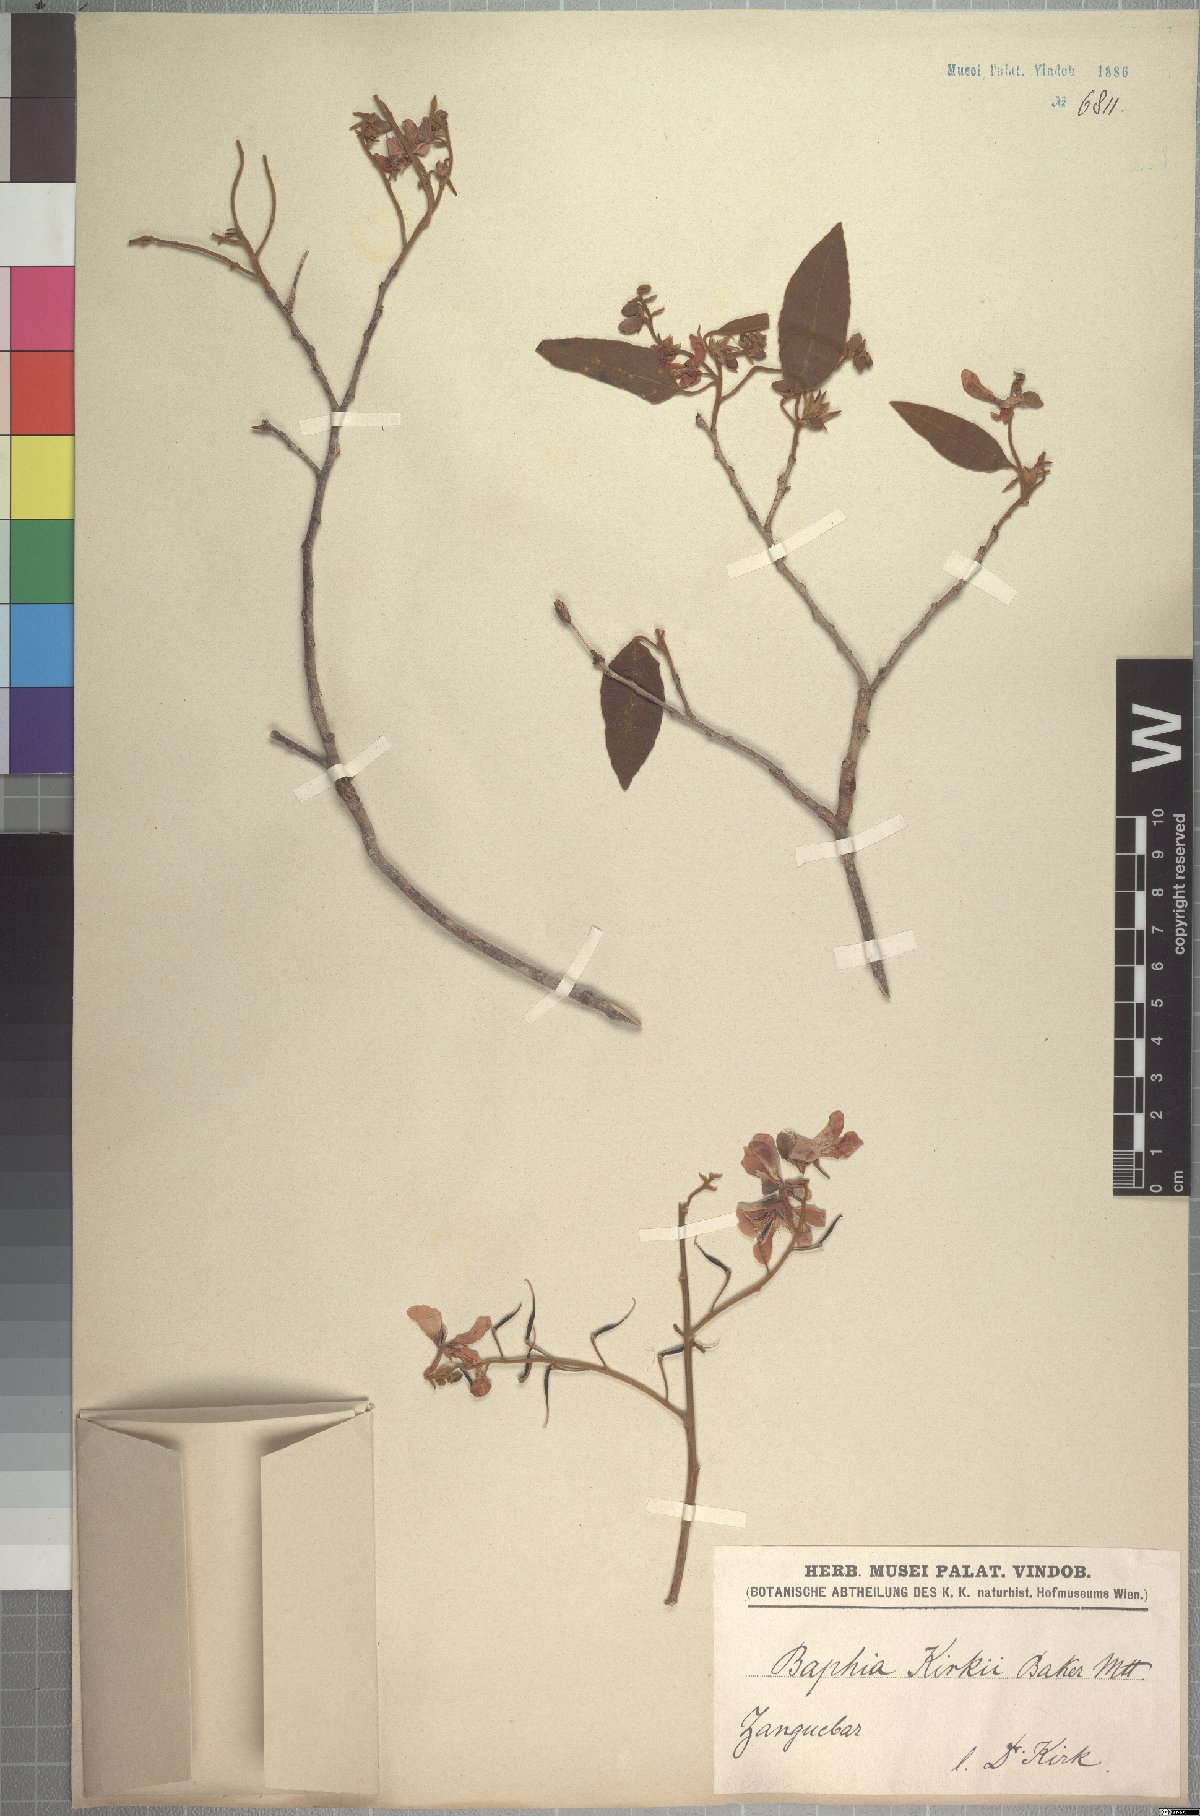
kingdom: Plantae
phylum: Tracheophyta
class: Magnoliopsida
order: Fabales
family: Fabaceae
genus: Baphia
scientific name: Baphia kirkii
